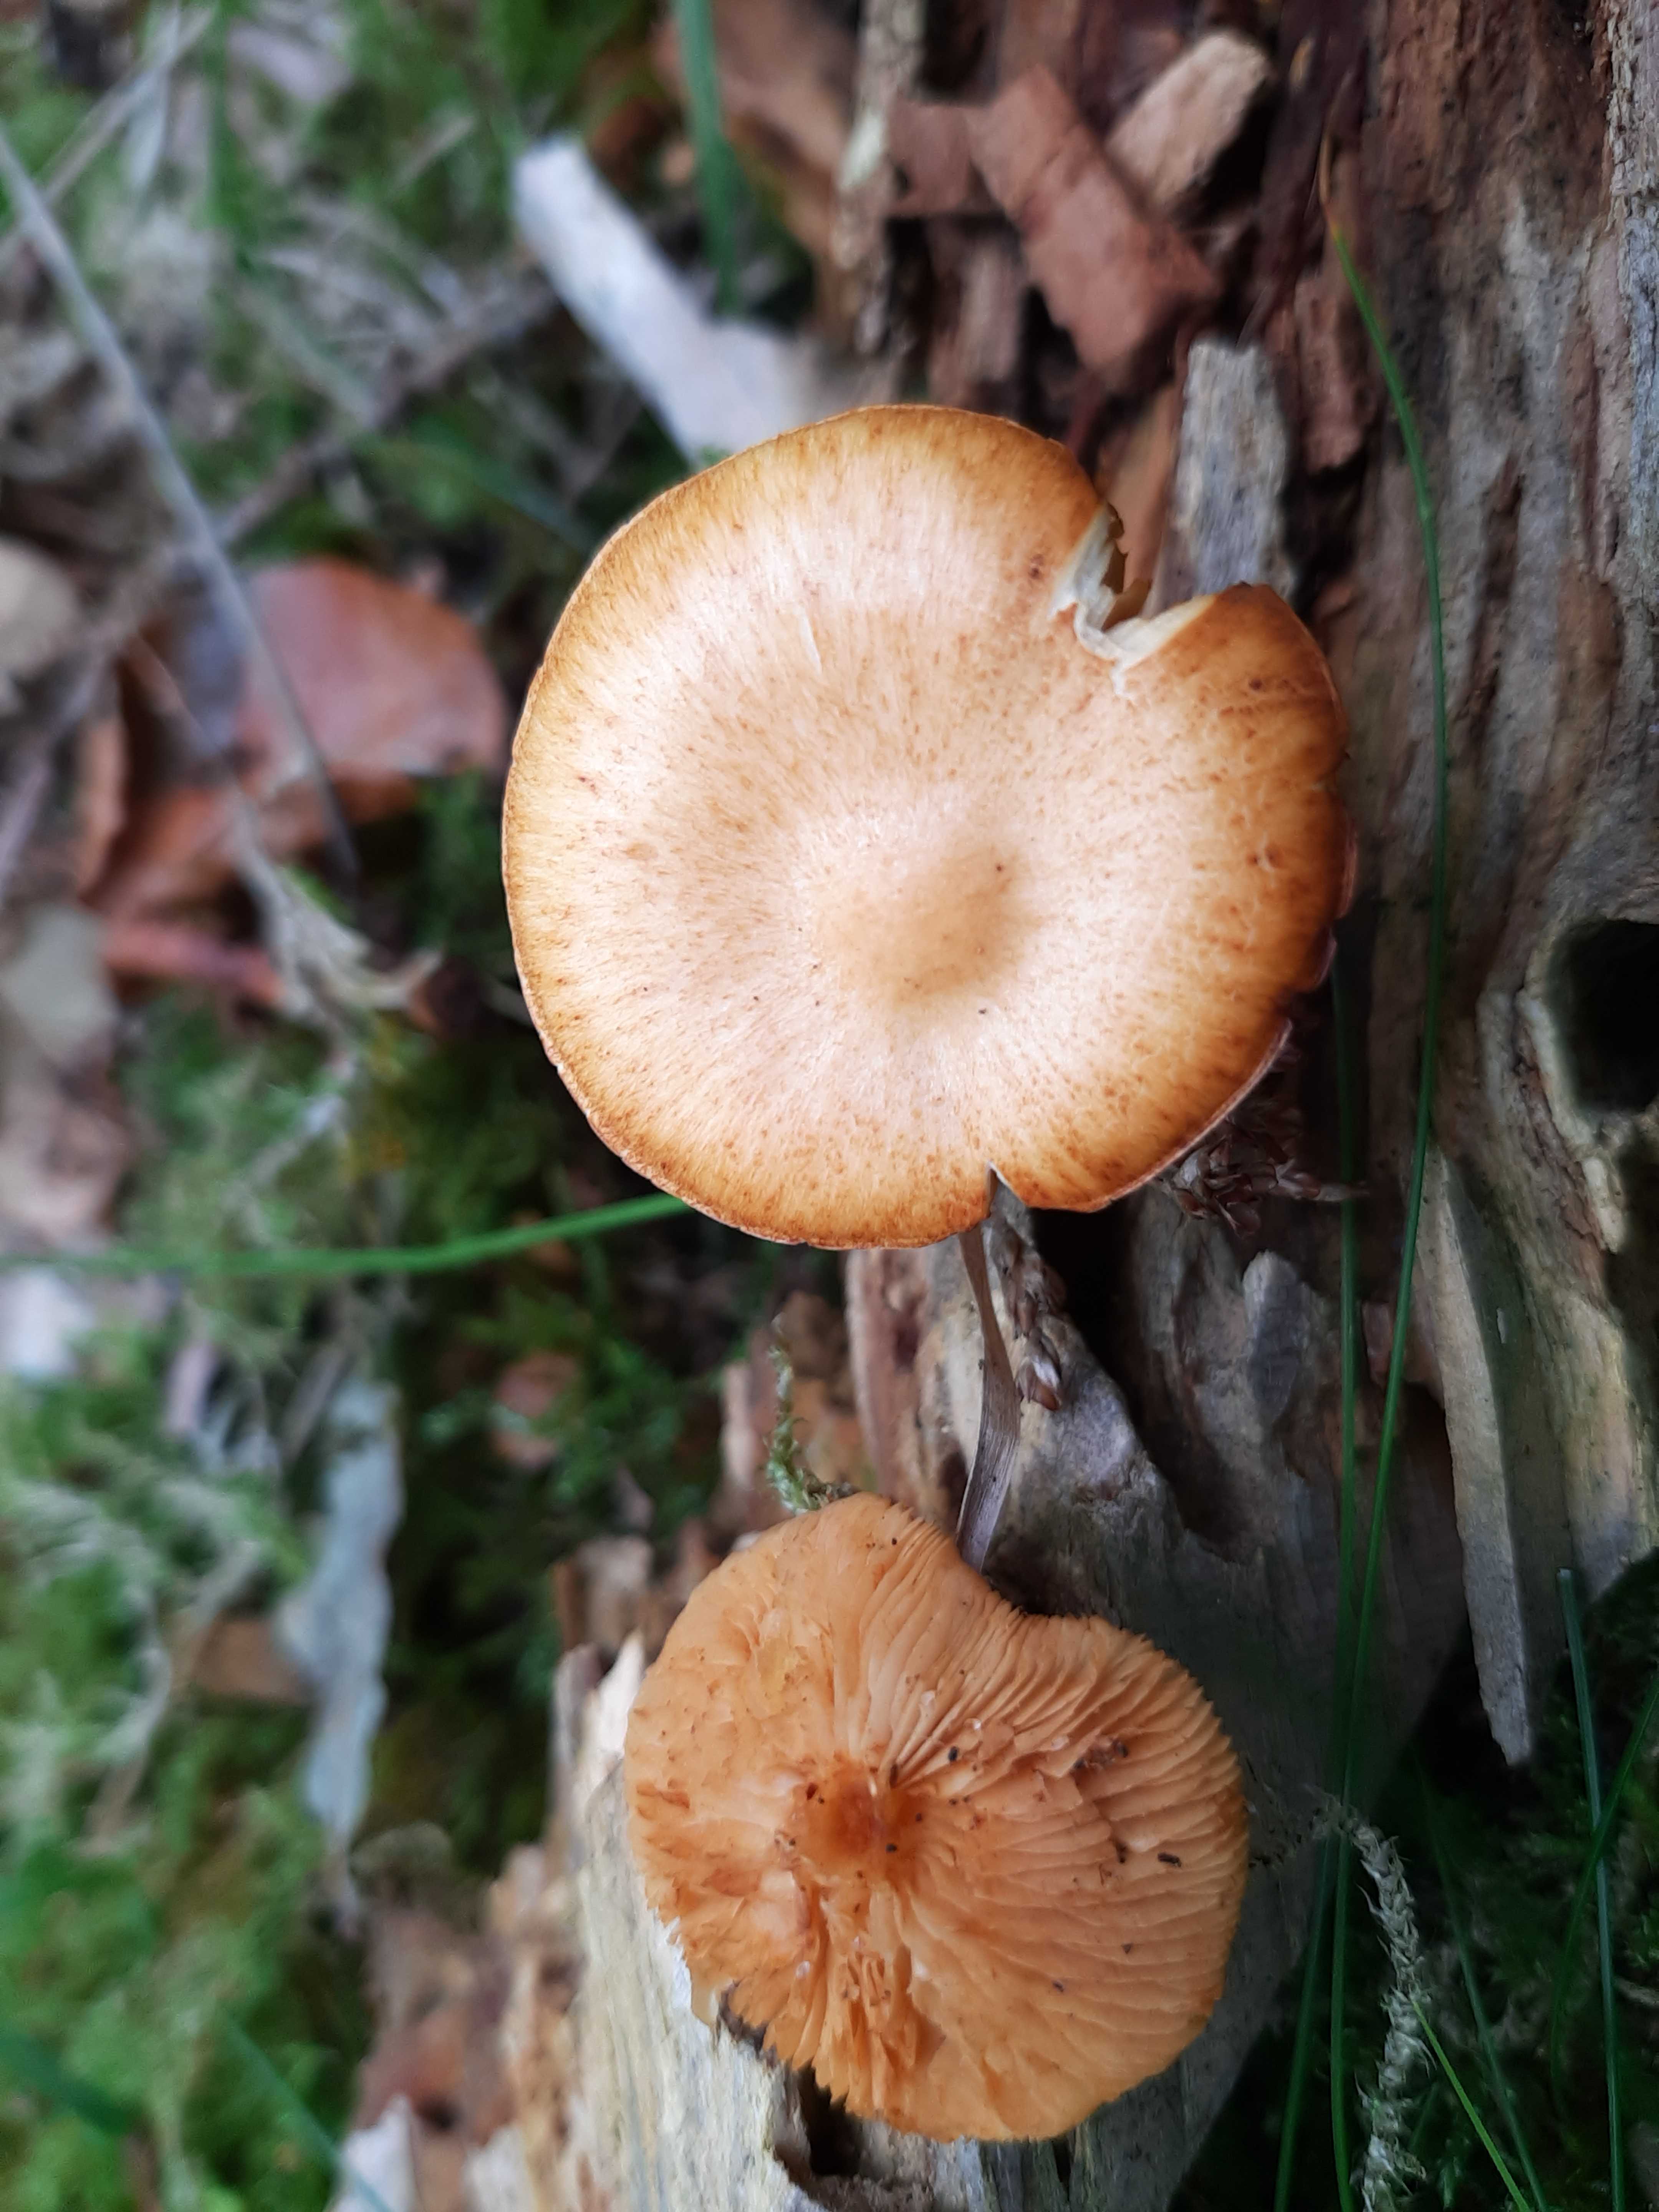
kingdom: Fungi
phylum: Basidiomycota
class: Agaricomycetes
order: Agaricales
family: Hymenogastraceae
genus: Gymnopilus
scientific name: Gymnopilus penetrans
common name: plettet flammehat
